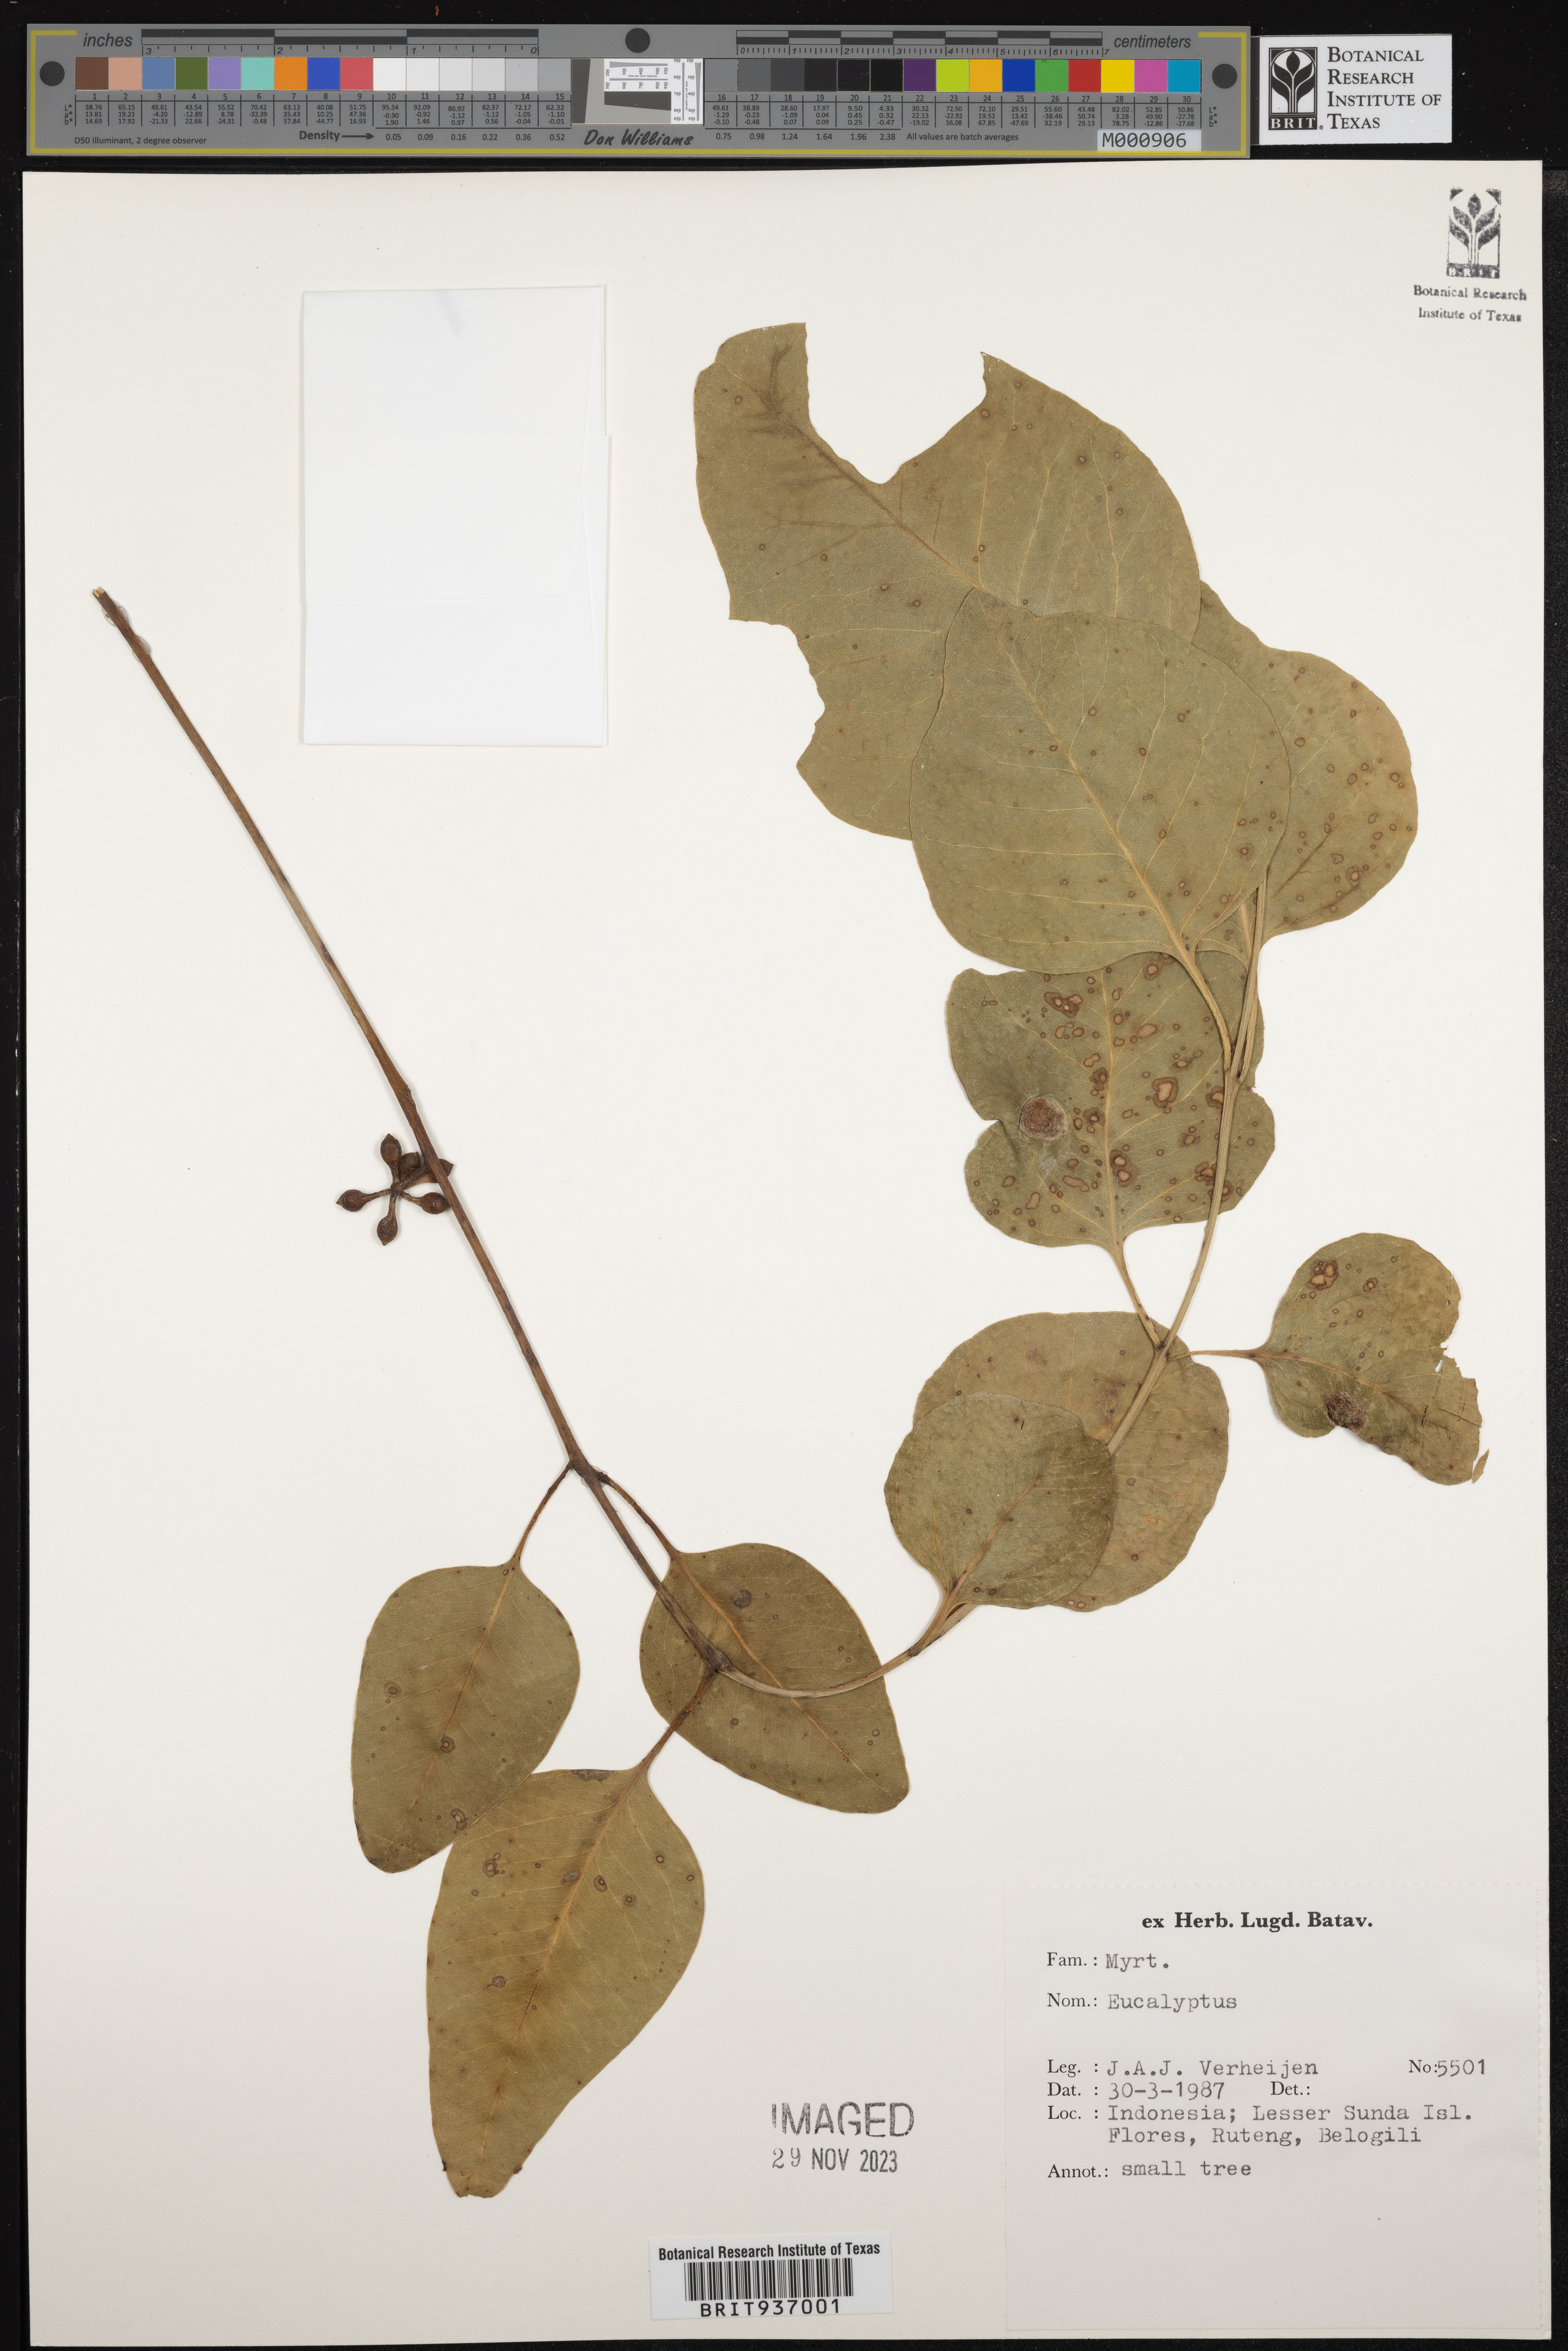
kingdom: Plantae
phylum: Tracheophyta
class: Magnoliopsida
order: Myrtales
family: Myrtaceae
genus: Eucalyptus
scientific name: Eucalyptus
